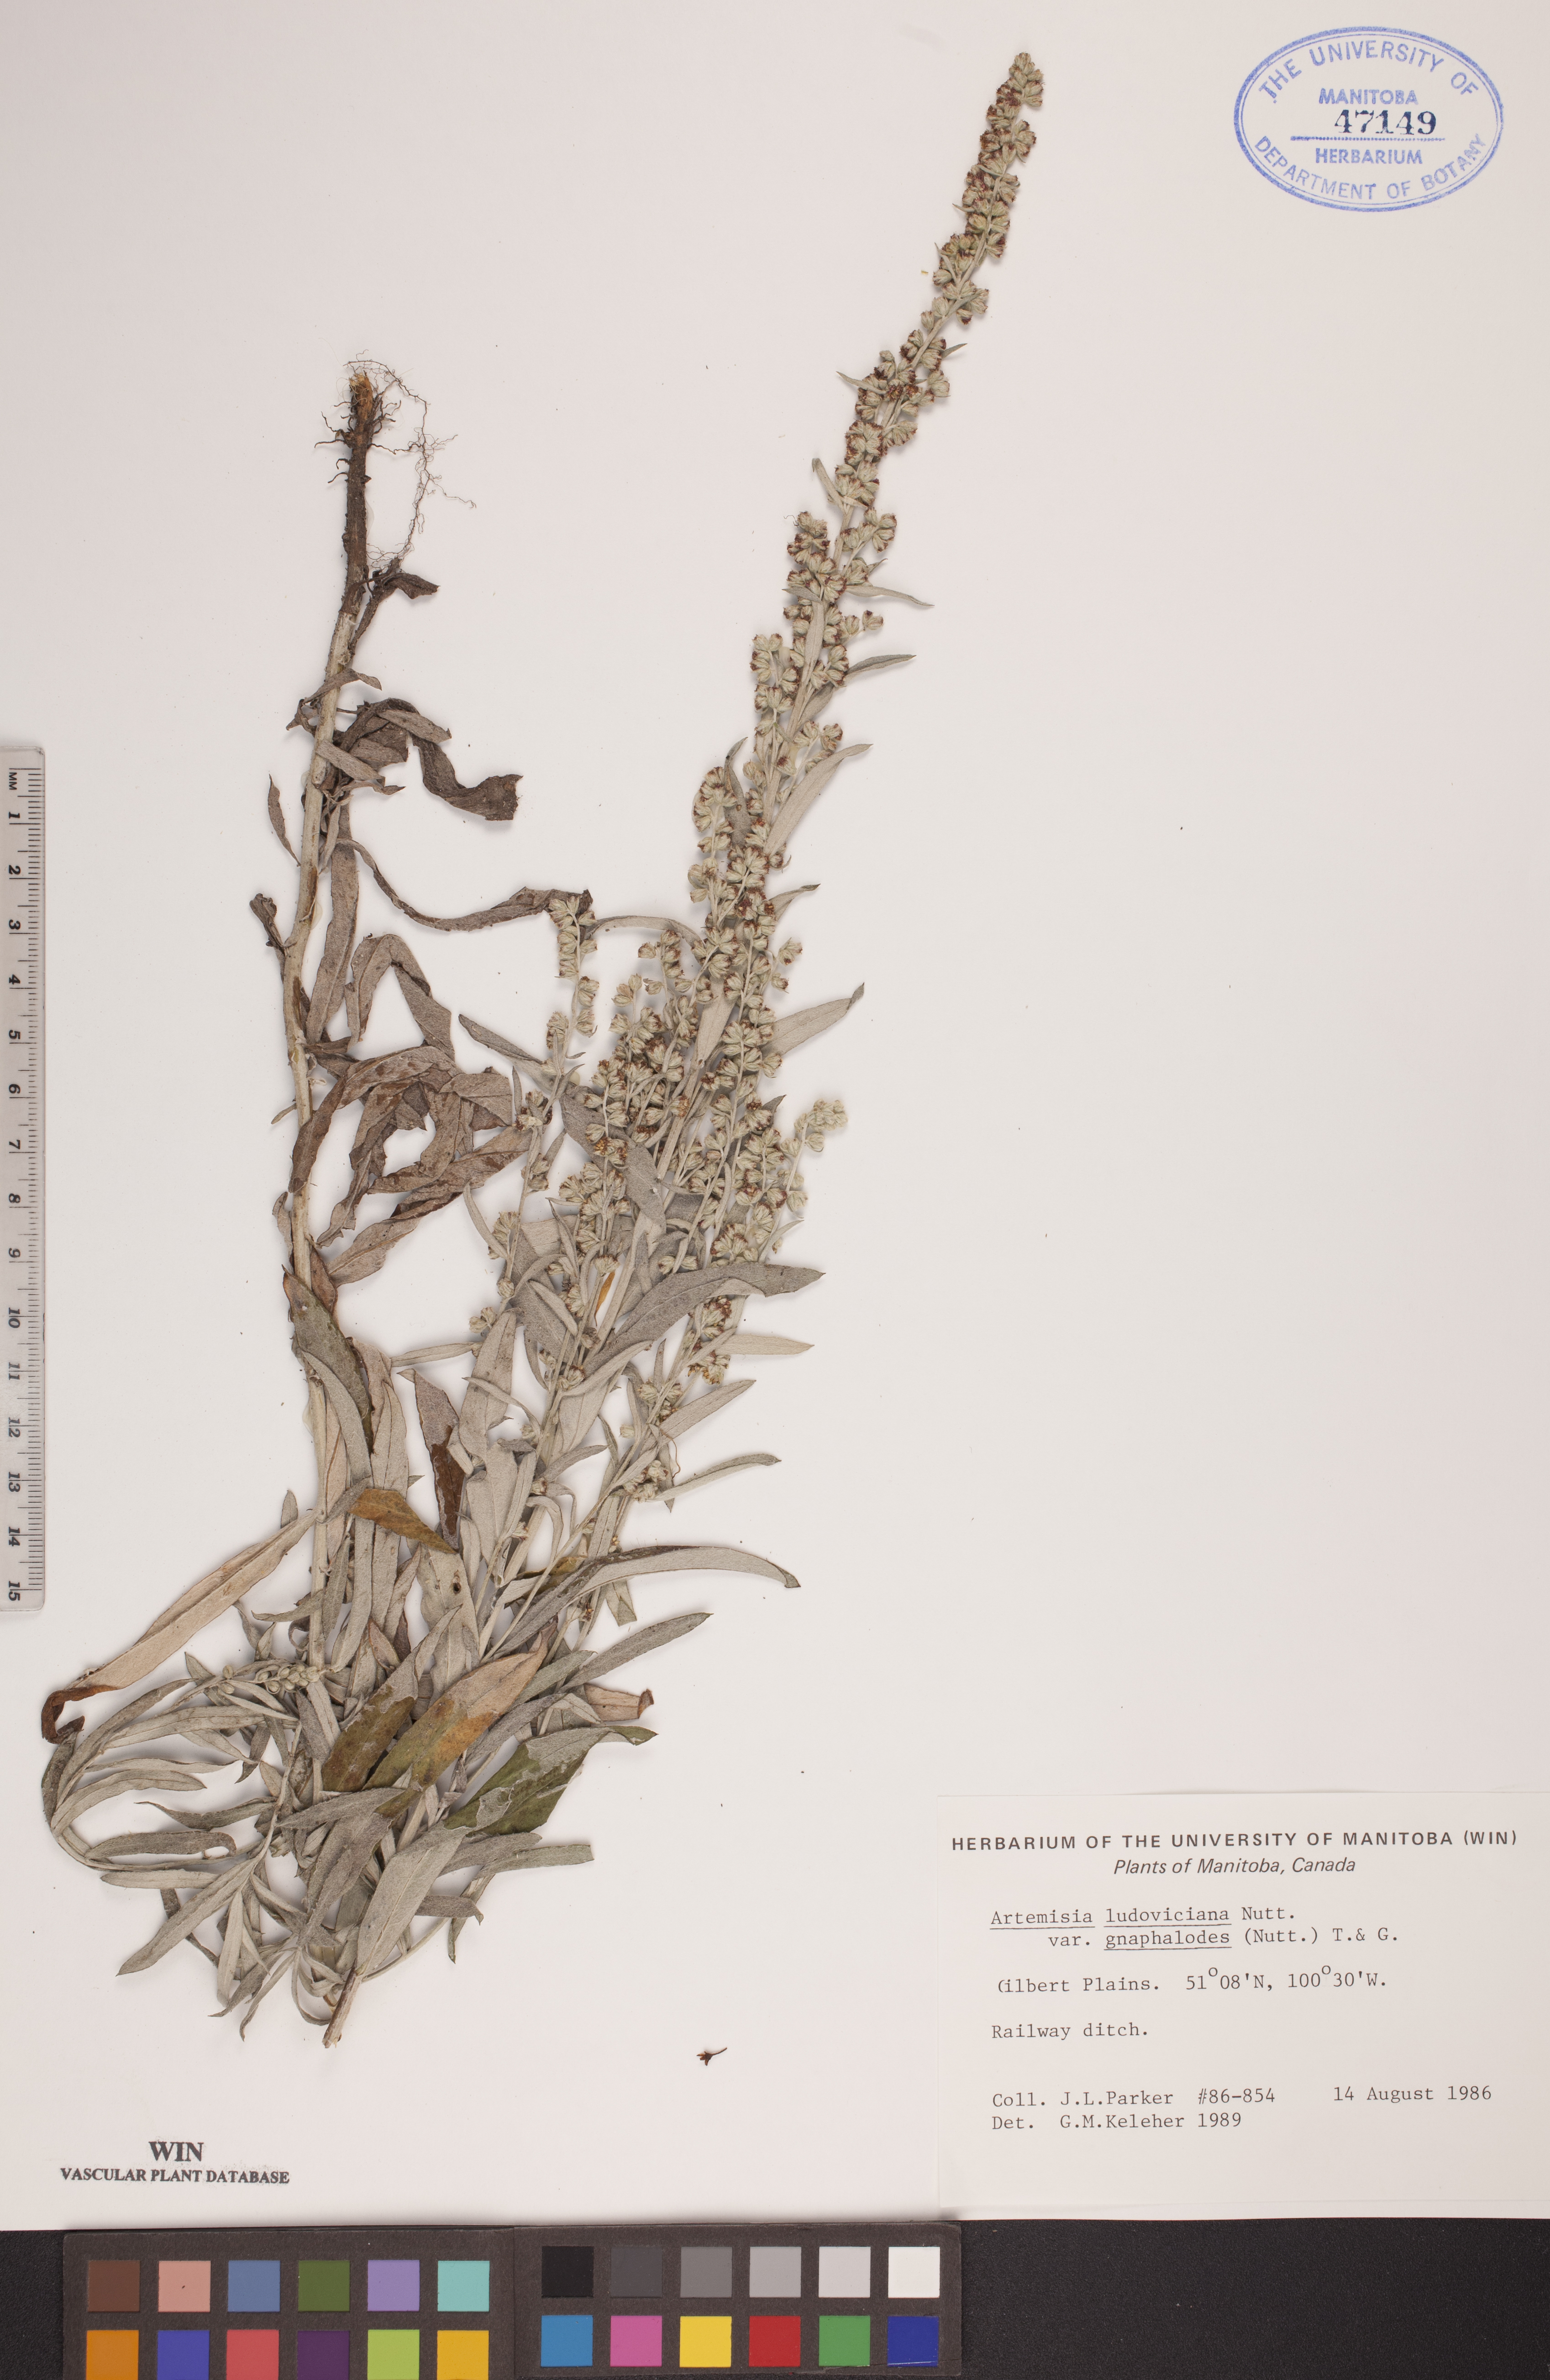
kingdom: Plantae
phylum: Tracheophyta
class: Magnoliopsida
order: Asterales
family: Asteraceae
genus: Artemisia
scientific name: Artemisia ludoviciana
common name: Western mugwort
